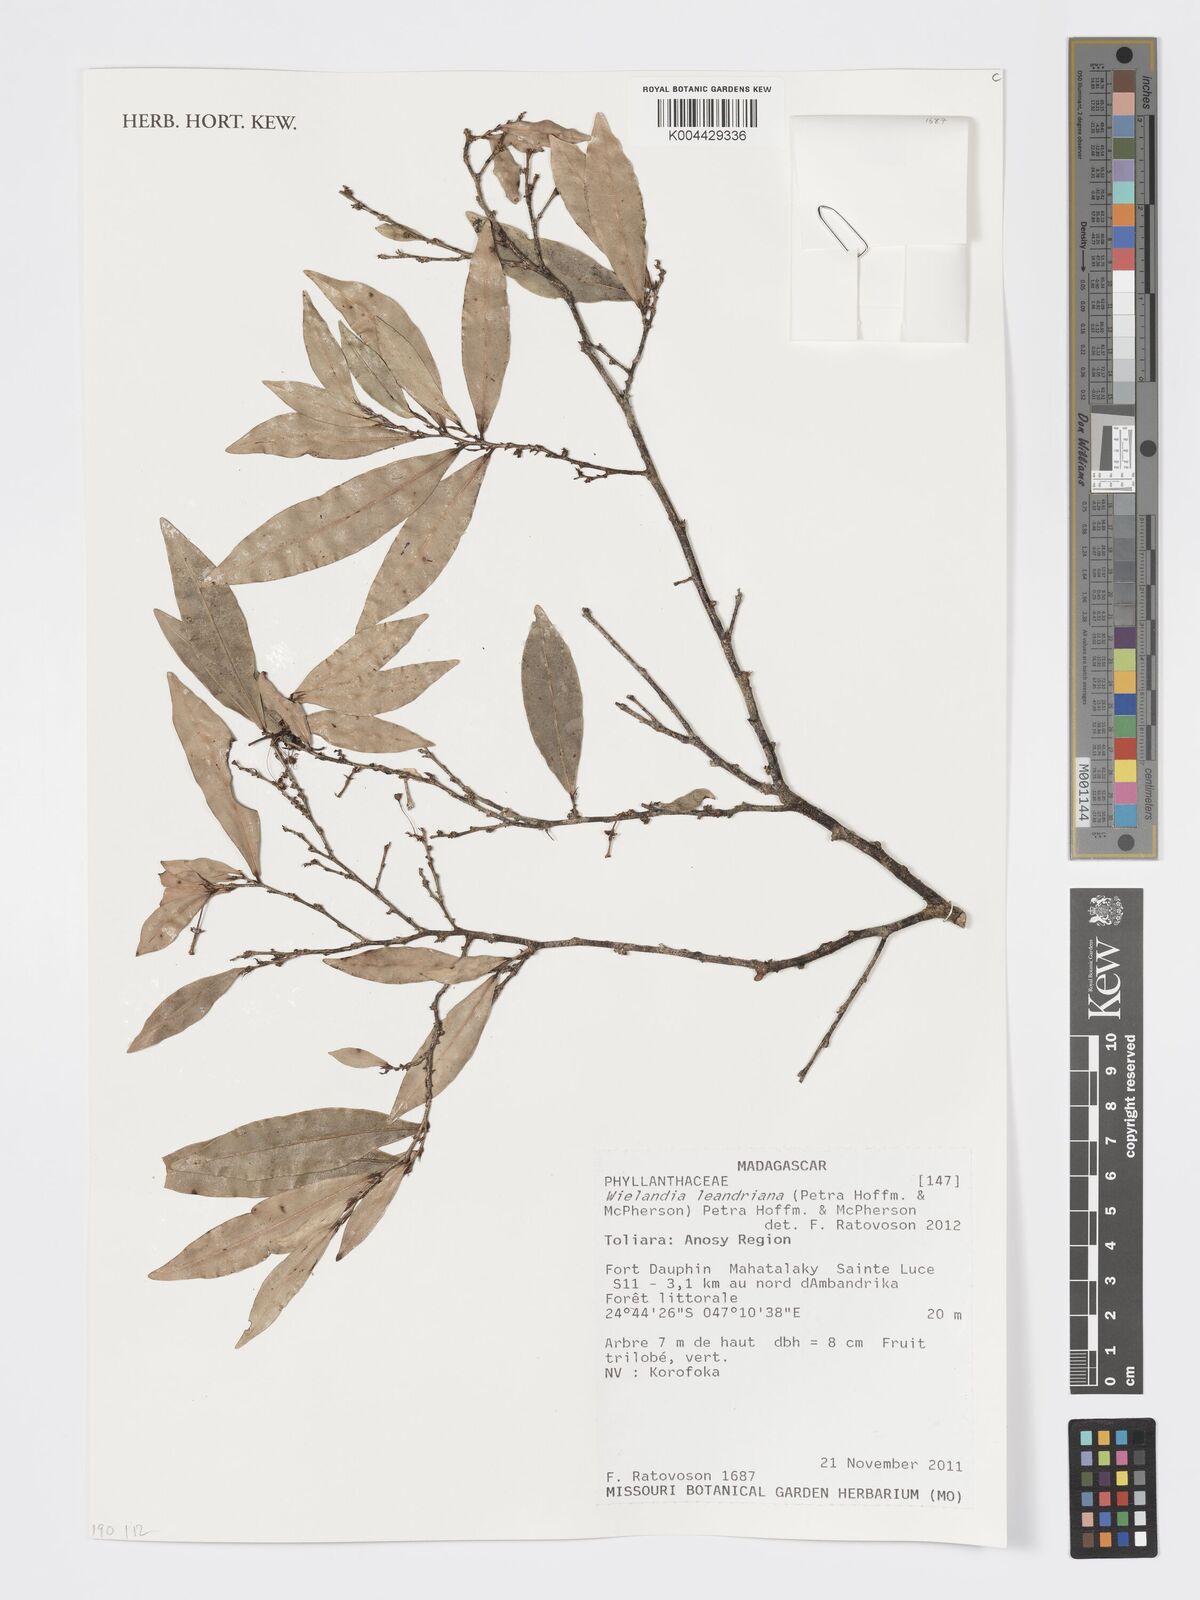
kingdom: Plantae
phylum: Tracheophyta
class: Magnoliopsida
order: Malpighiales
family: Phyllanthaceae
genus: Wielandia
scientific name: Wielandia leandriana
